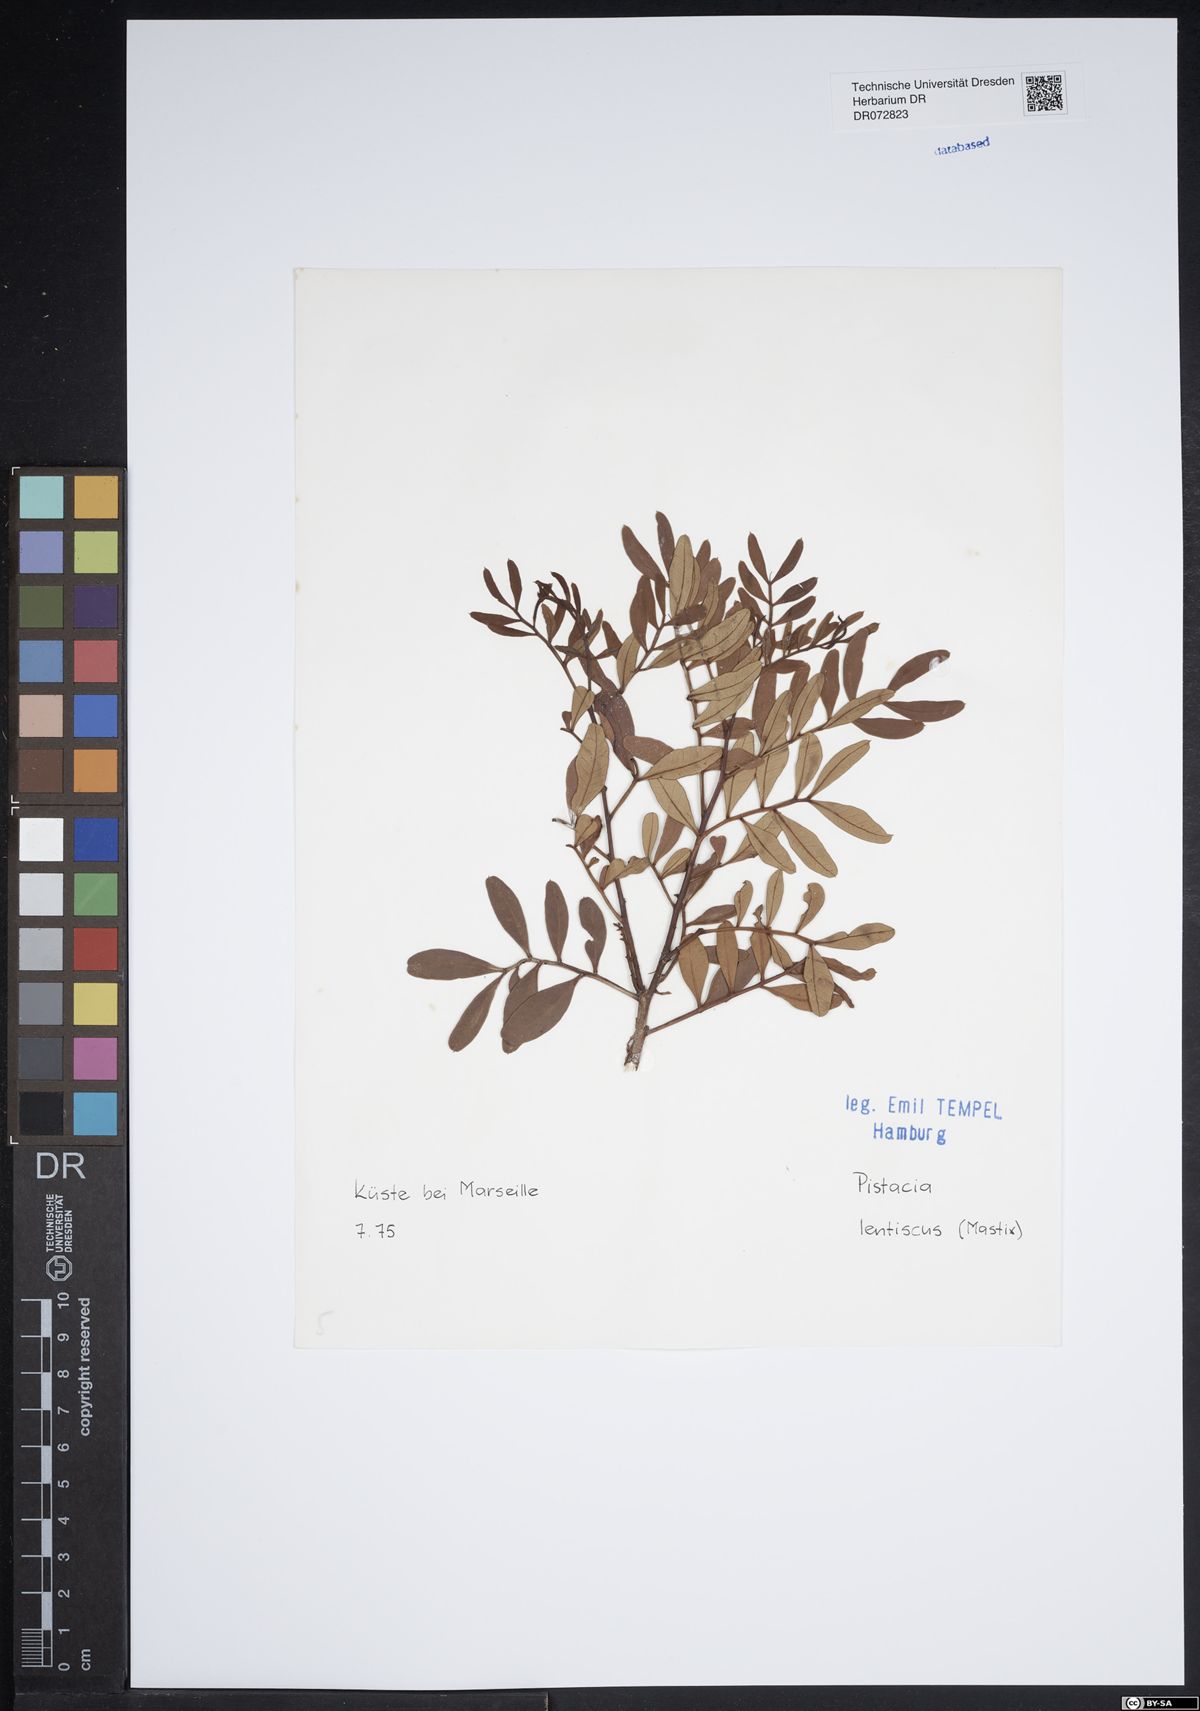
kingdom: Plantae
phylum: Tracheophyta
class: Magnoliopsida
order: Sapindales
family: Anacardiaceae
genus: Pistacia
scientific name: Pistacia lentiscus
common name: Lentisk
